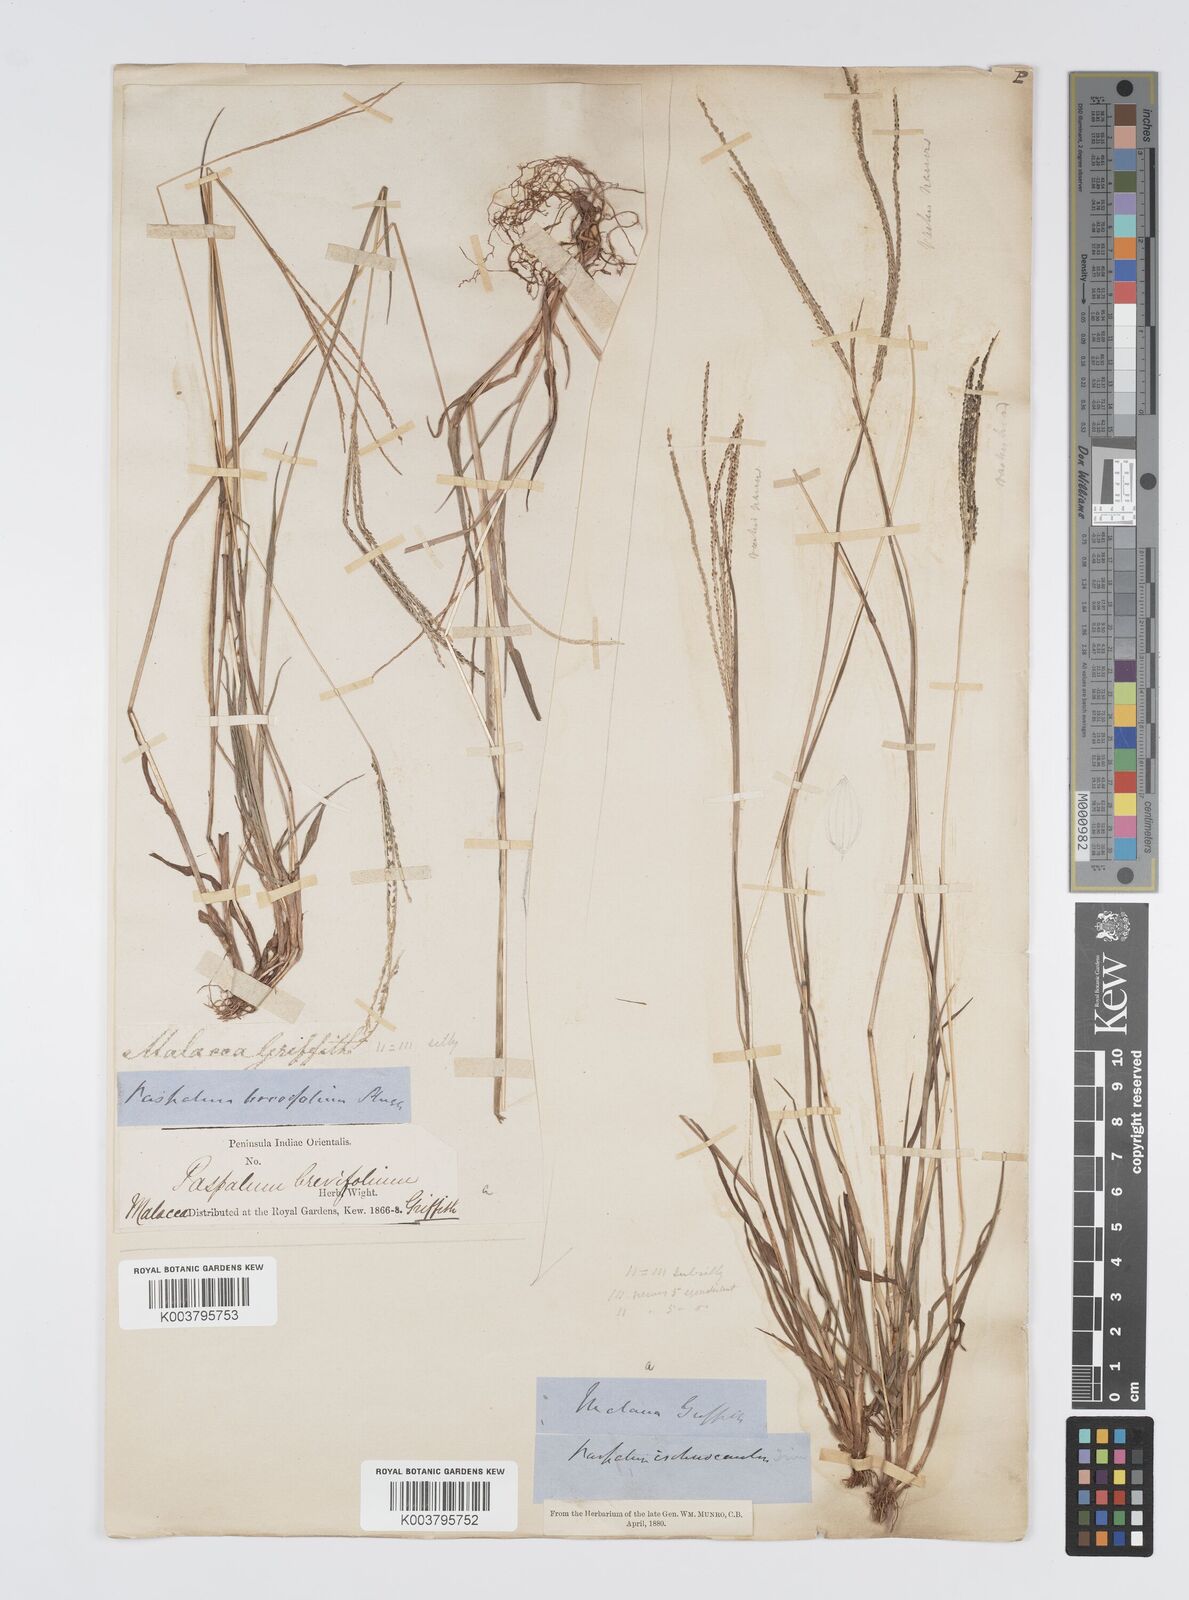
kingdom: Plantae
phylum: Tracheophyta
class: Liliopsida
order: Poales
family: Poaceae
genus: Digitaria
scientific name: Digitaria violascens
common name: Violet crabgrass
